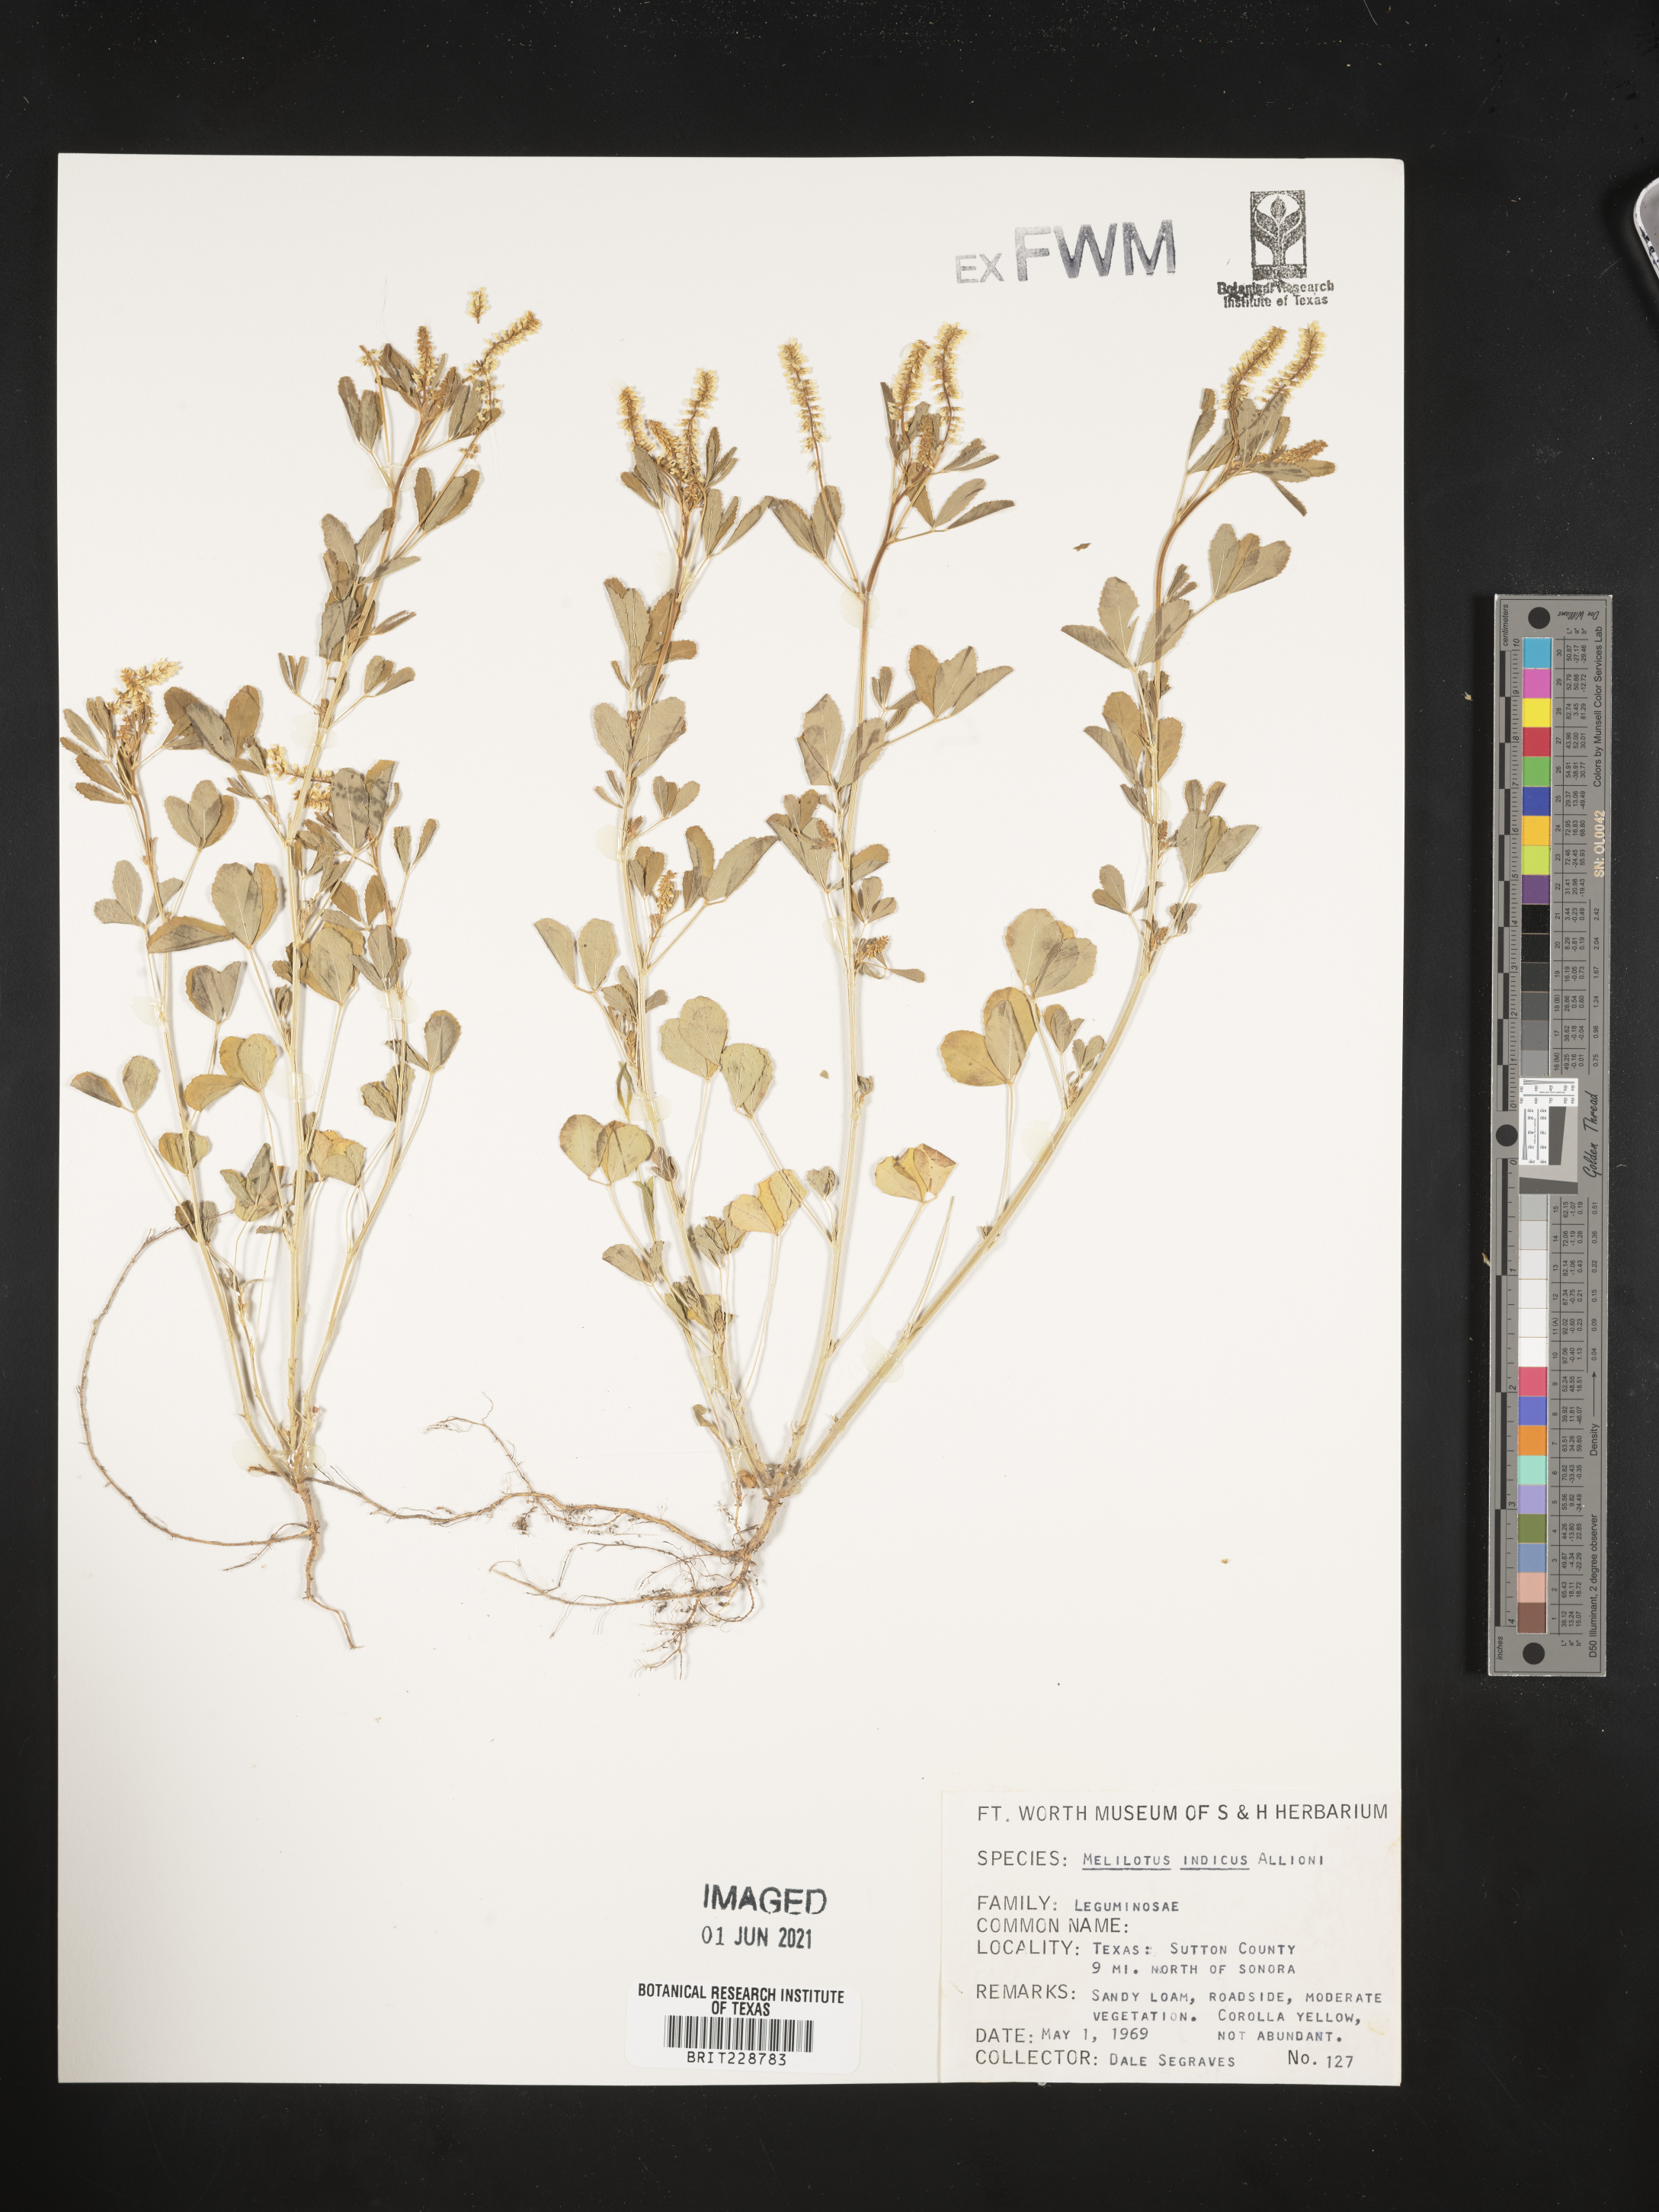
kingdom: Plantae
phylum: Tracheophyta
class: Magnoliopsida
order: Fabales
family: Fabaceae
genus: Melilotus
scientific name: Melilotus indicus
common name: Small melilot
